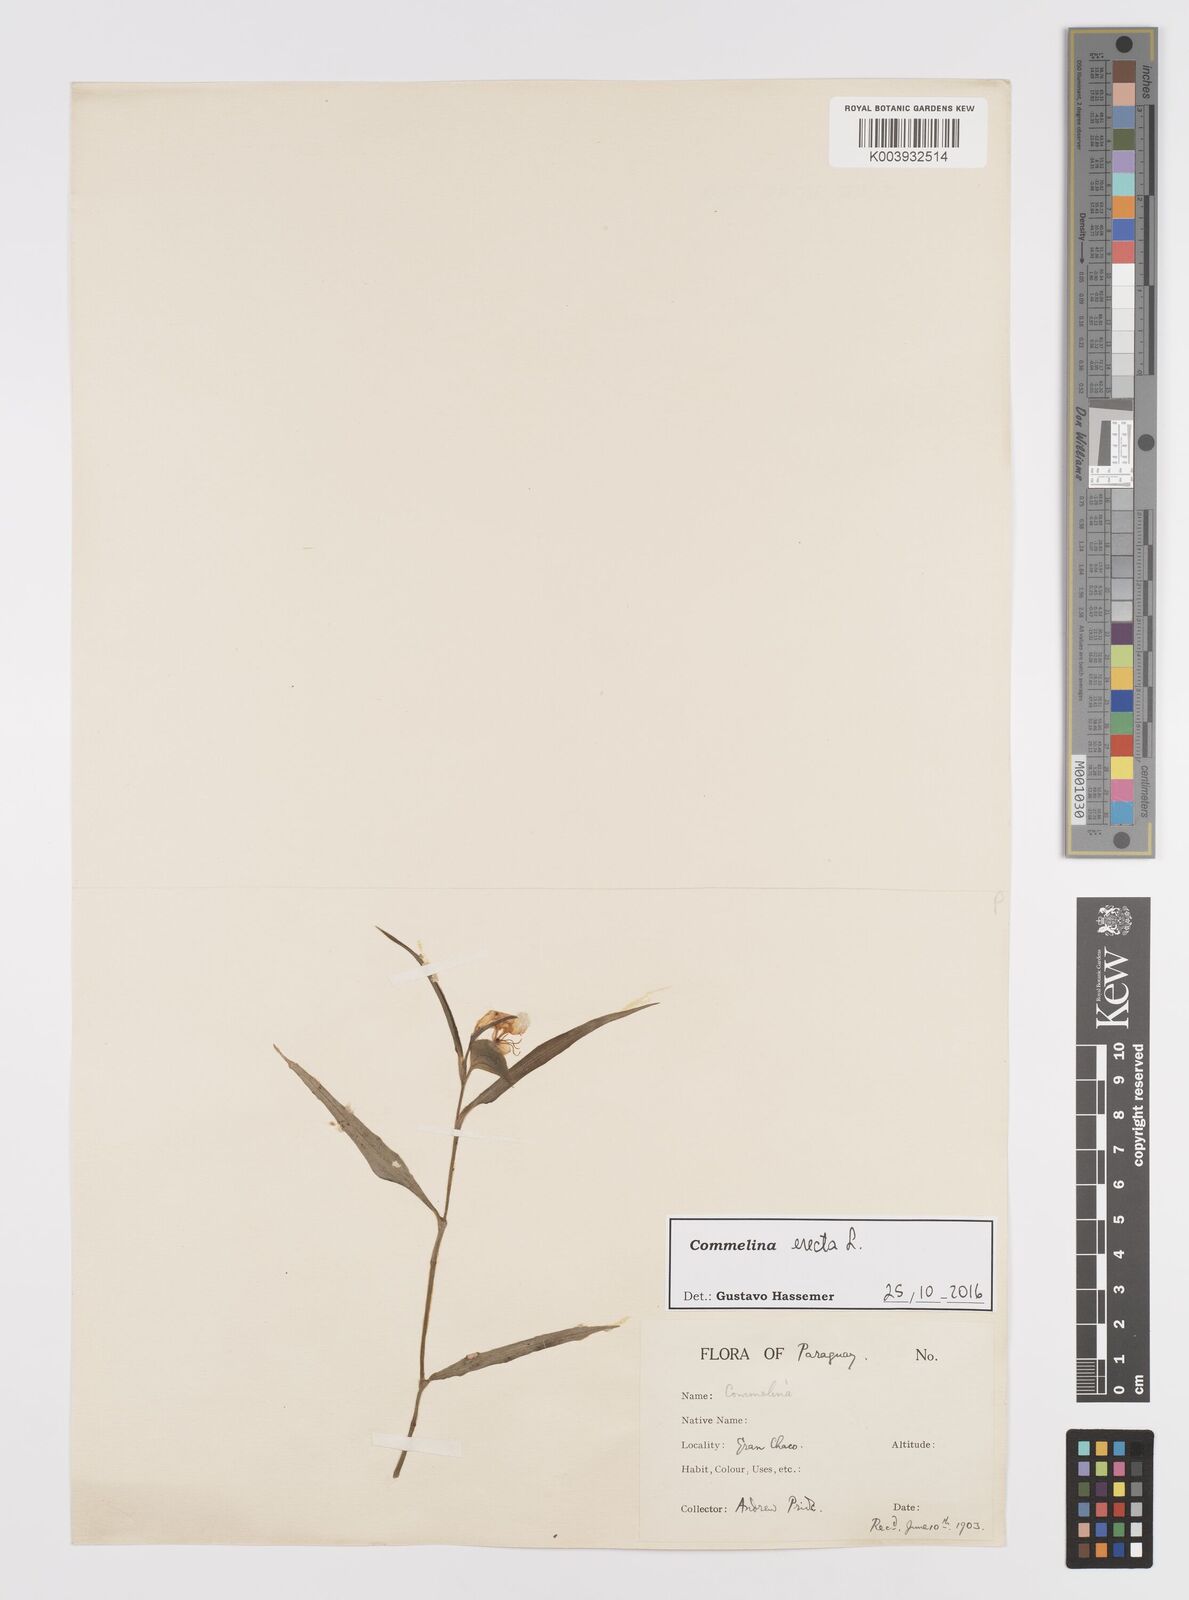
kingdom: Plantae
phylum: Tracheophyta
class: Liliopsida
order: Commelinales
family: Commelinaceae
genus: Commelina
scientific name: Commelina erecta
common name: Blousel blommetjie
